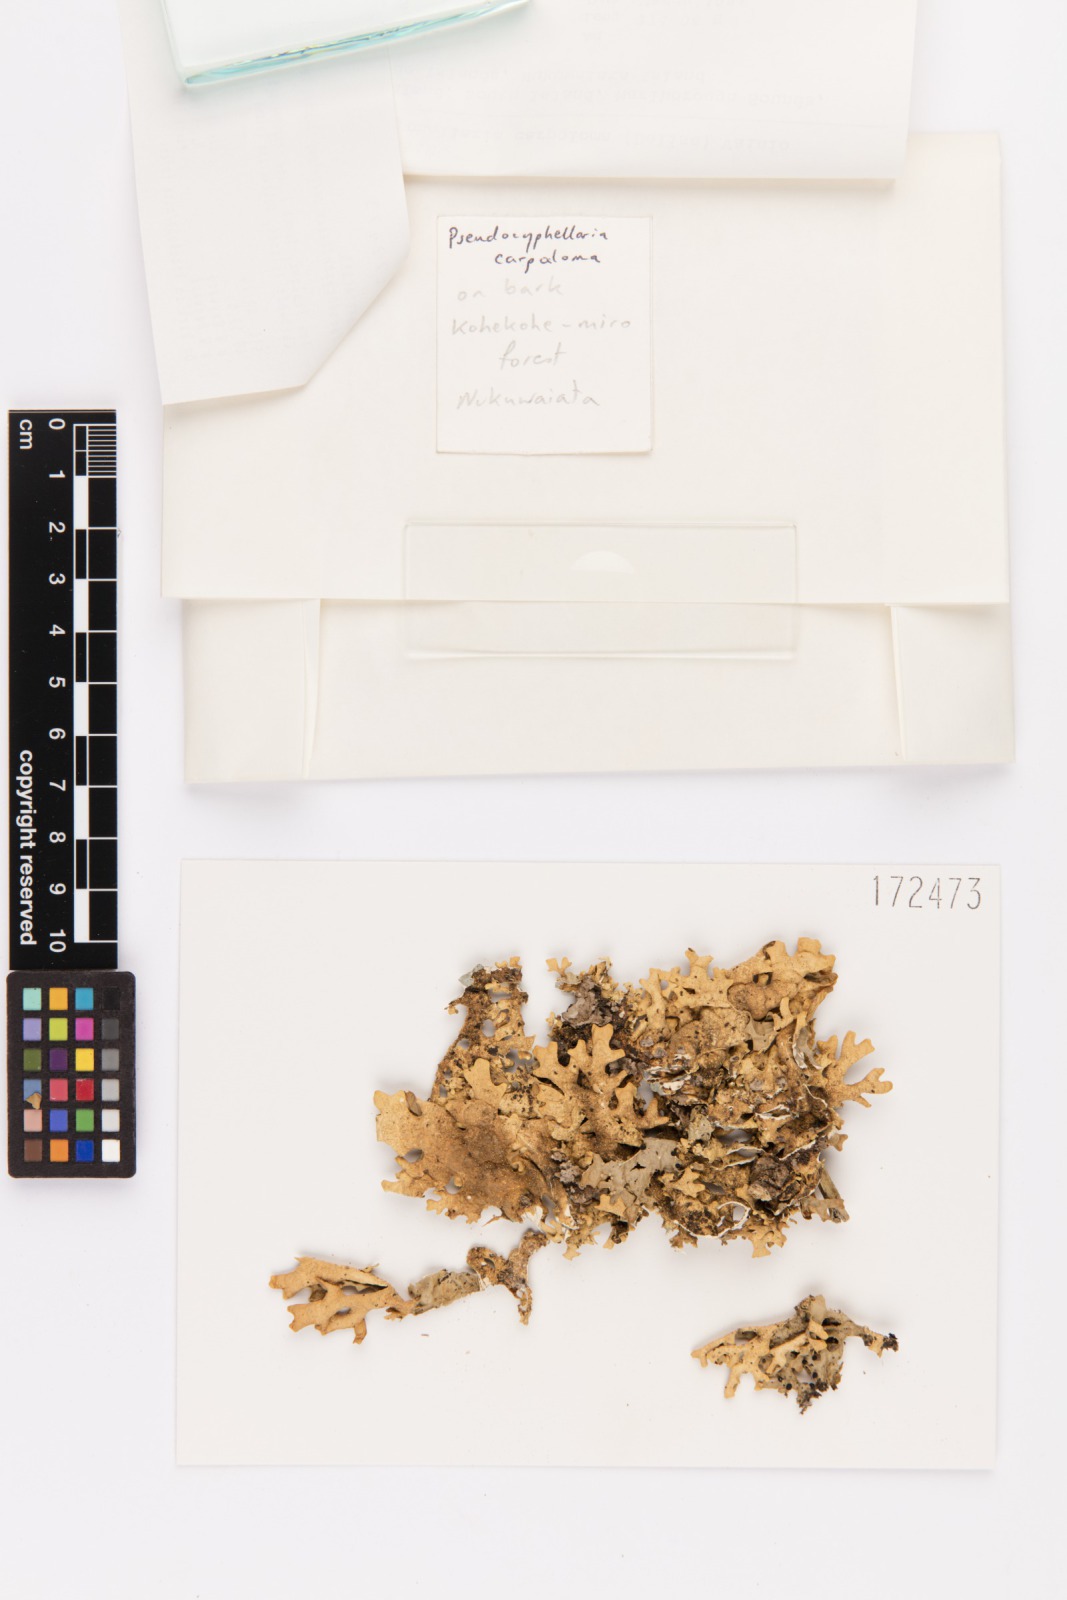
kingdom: Fungi
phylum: Ascomycota
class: Lecanoromycetes
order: Peltigerales
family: Lobariaceae
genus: Pseudocyphellaria
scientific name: Pseudocyphellaria carpoloma
